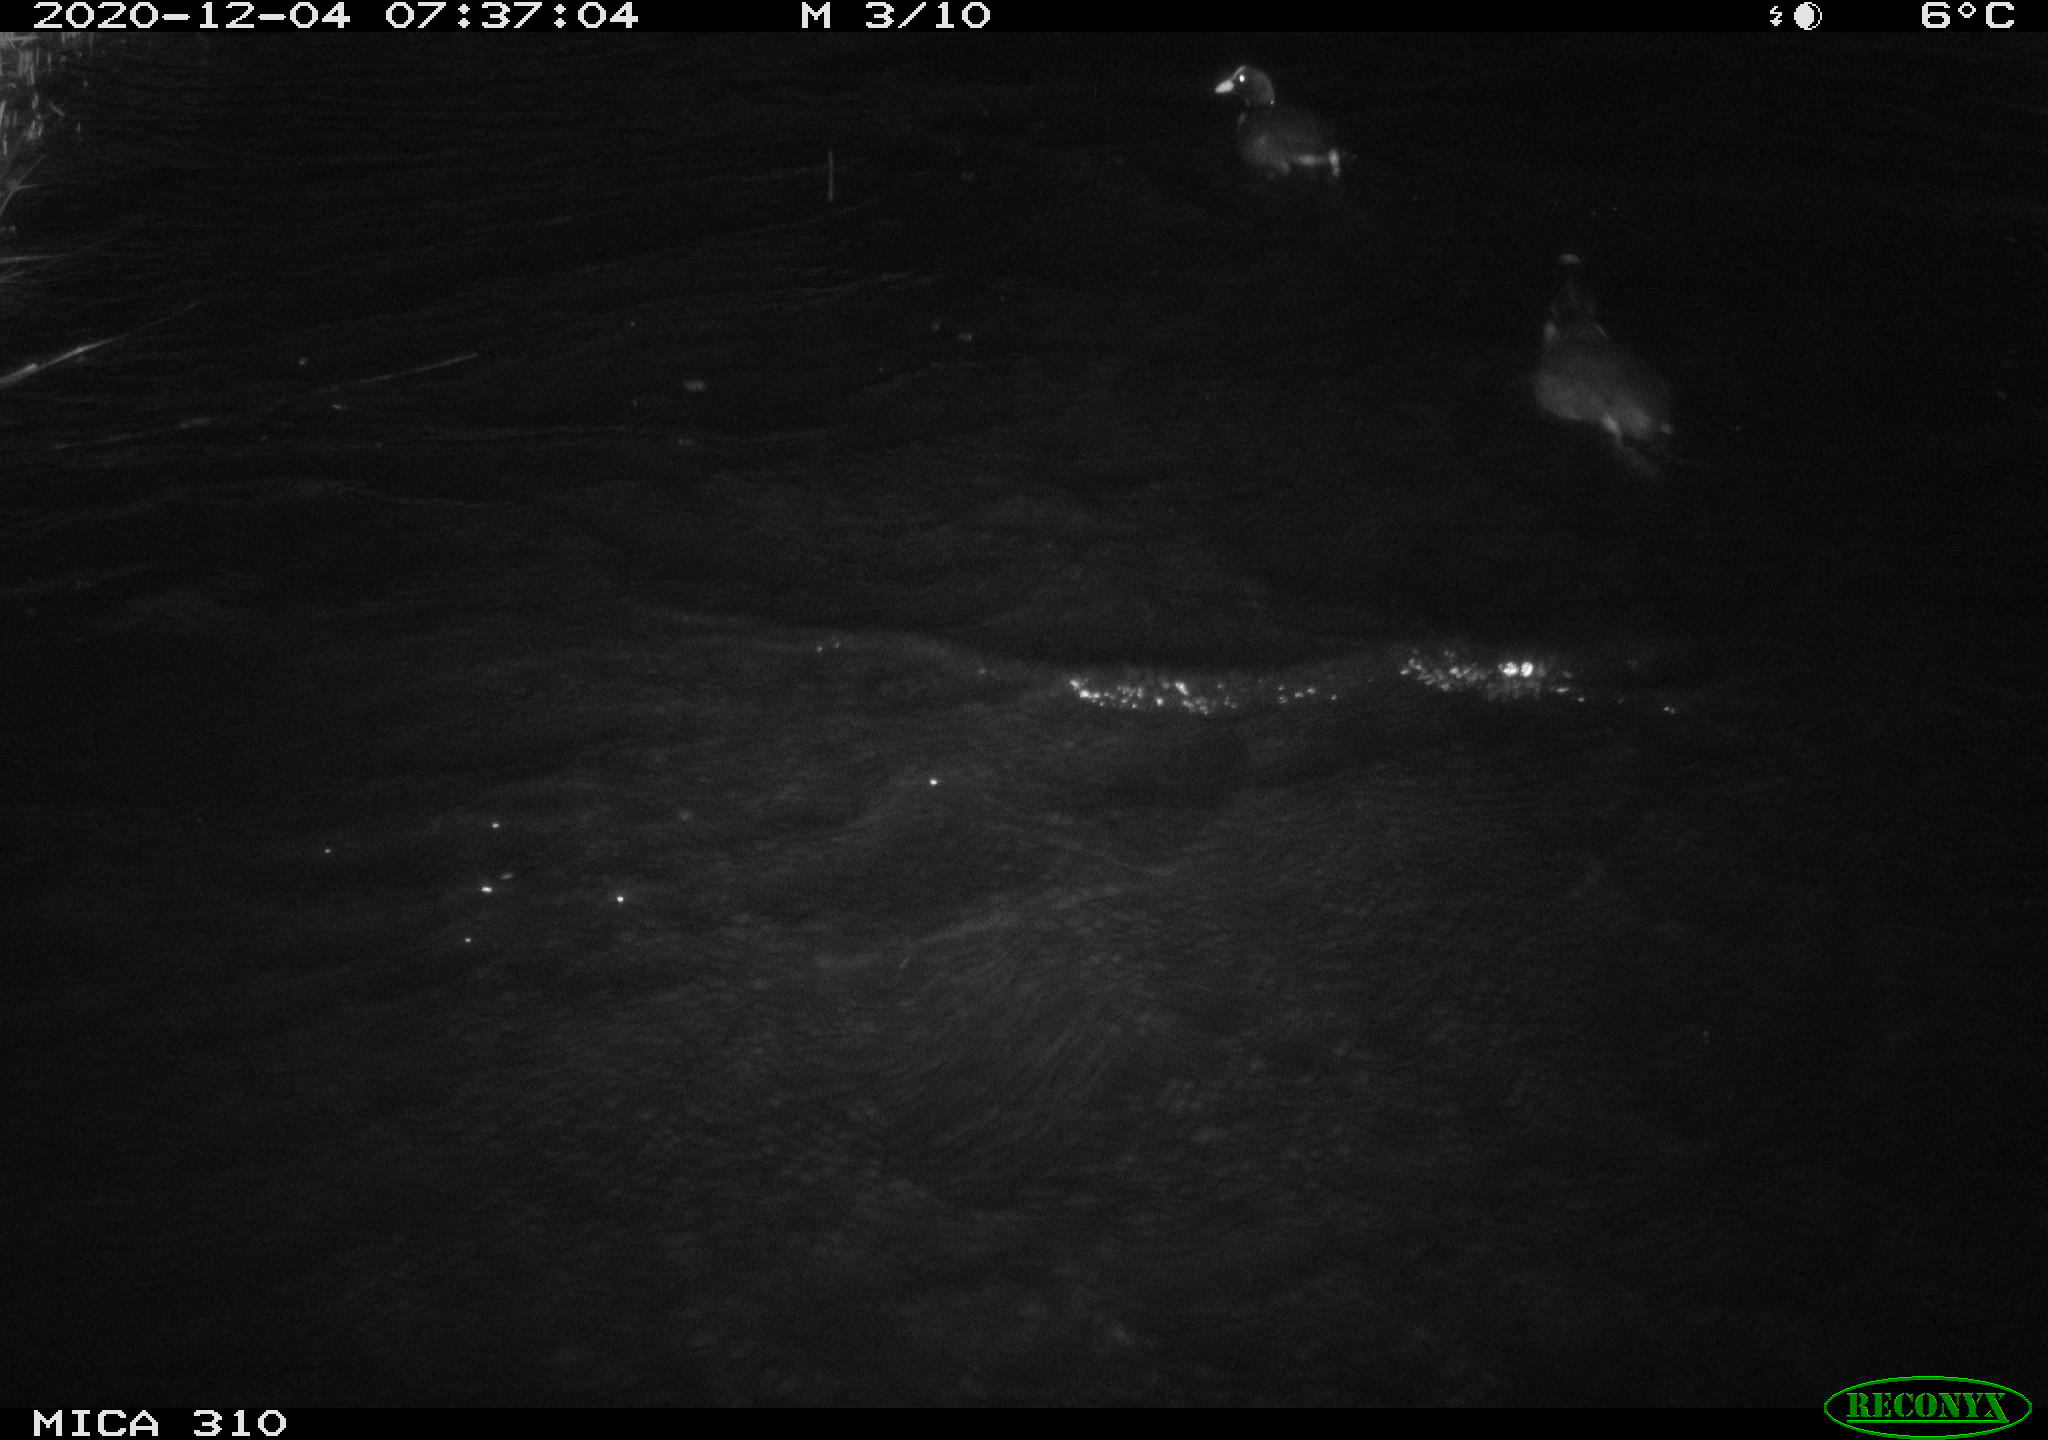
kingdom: Animalia
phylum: Chordata
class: Aves
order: Gruiformes
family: Rallidae
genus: Gallinula
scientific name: Gallinula chloropus
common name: Common moorhen
